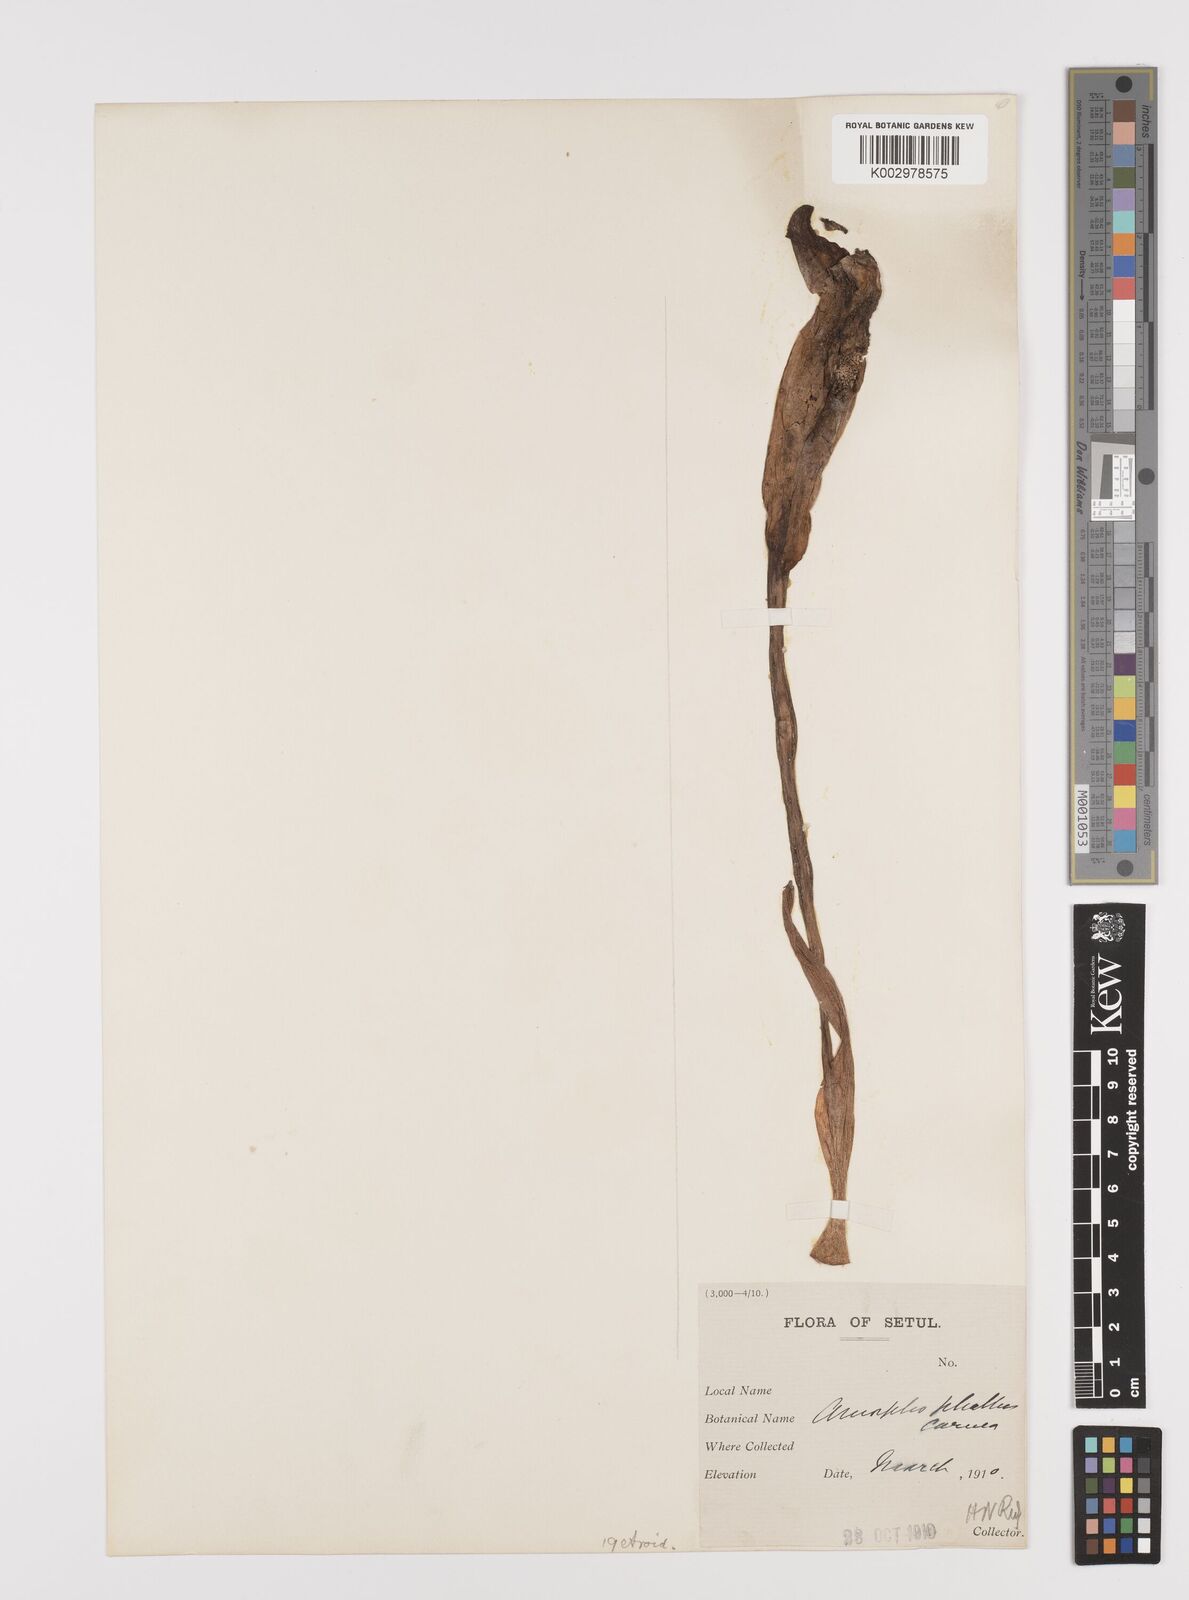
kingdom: Plantae
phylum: Tracheophyta
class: Liliopsida
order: Alismatales
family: Araceae
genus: Amorphophallus
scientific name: Amorphophallus carneus
